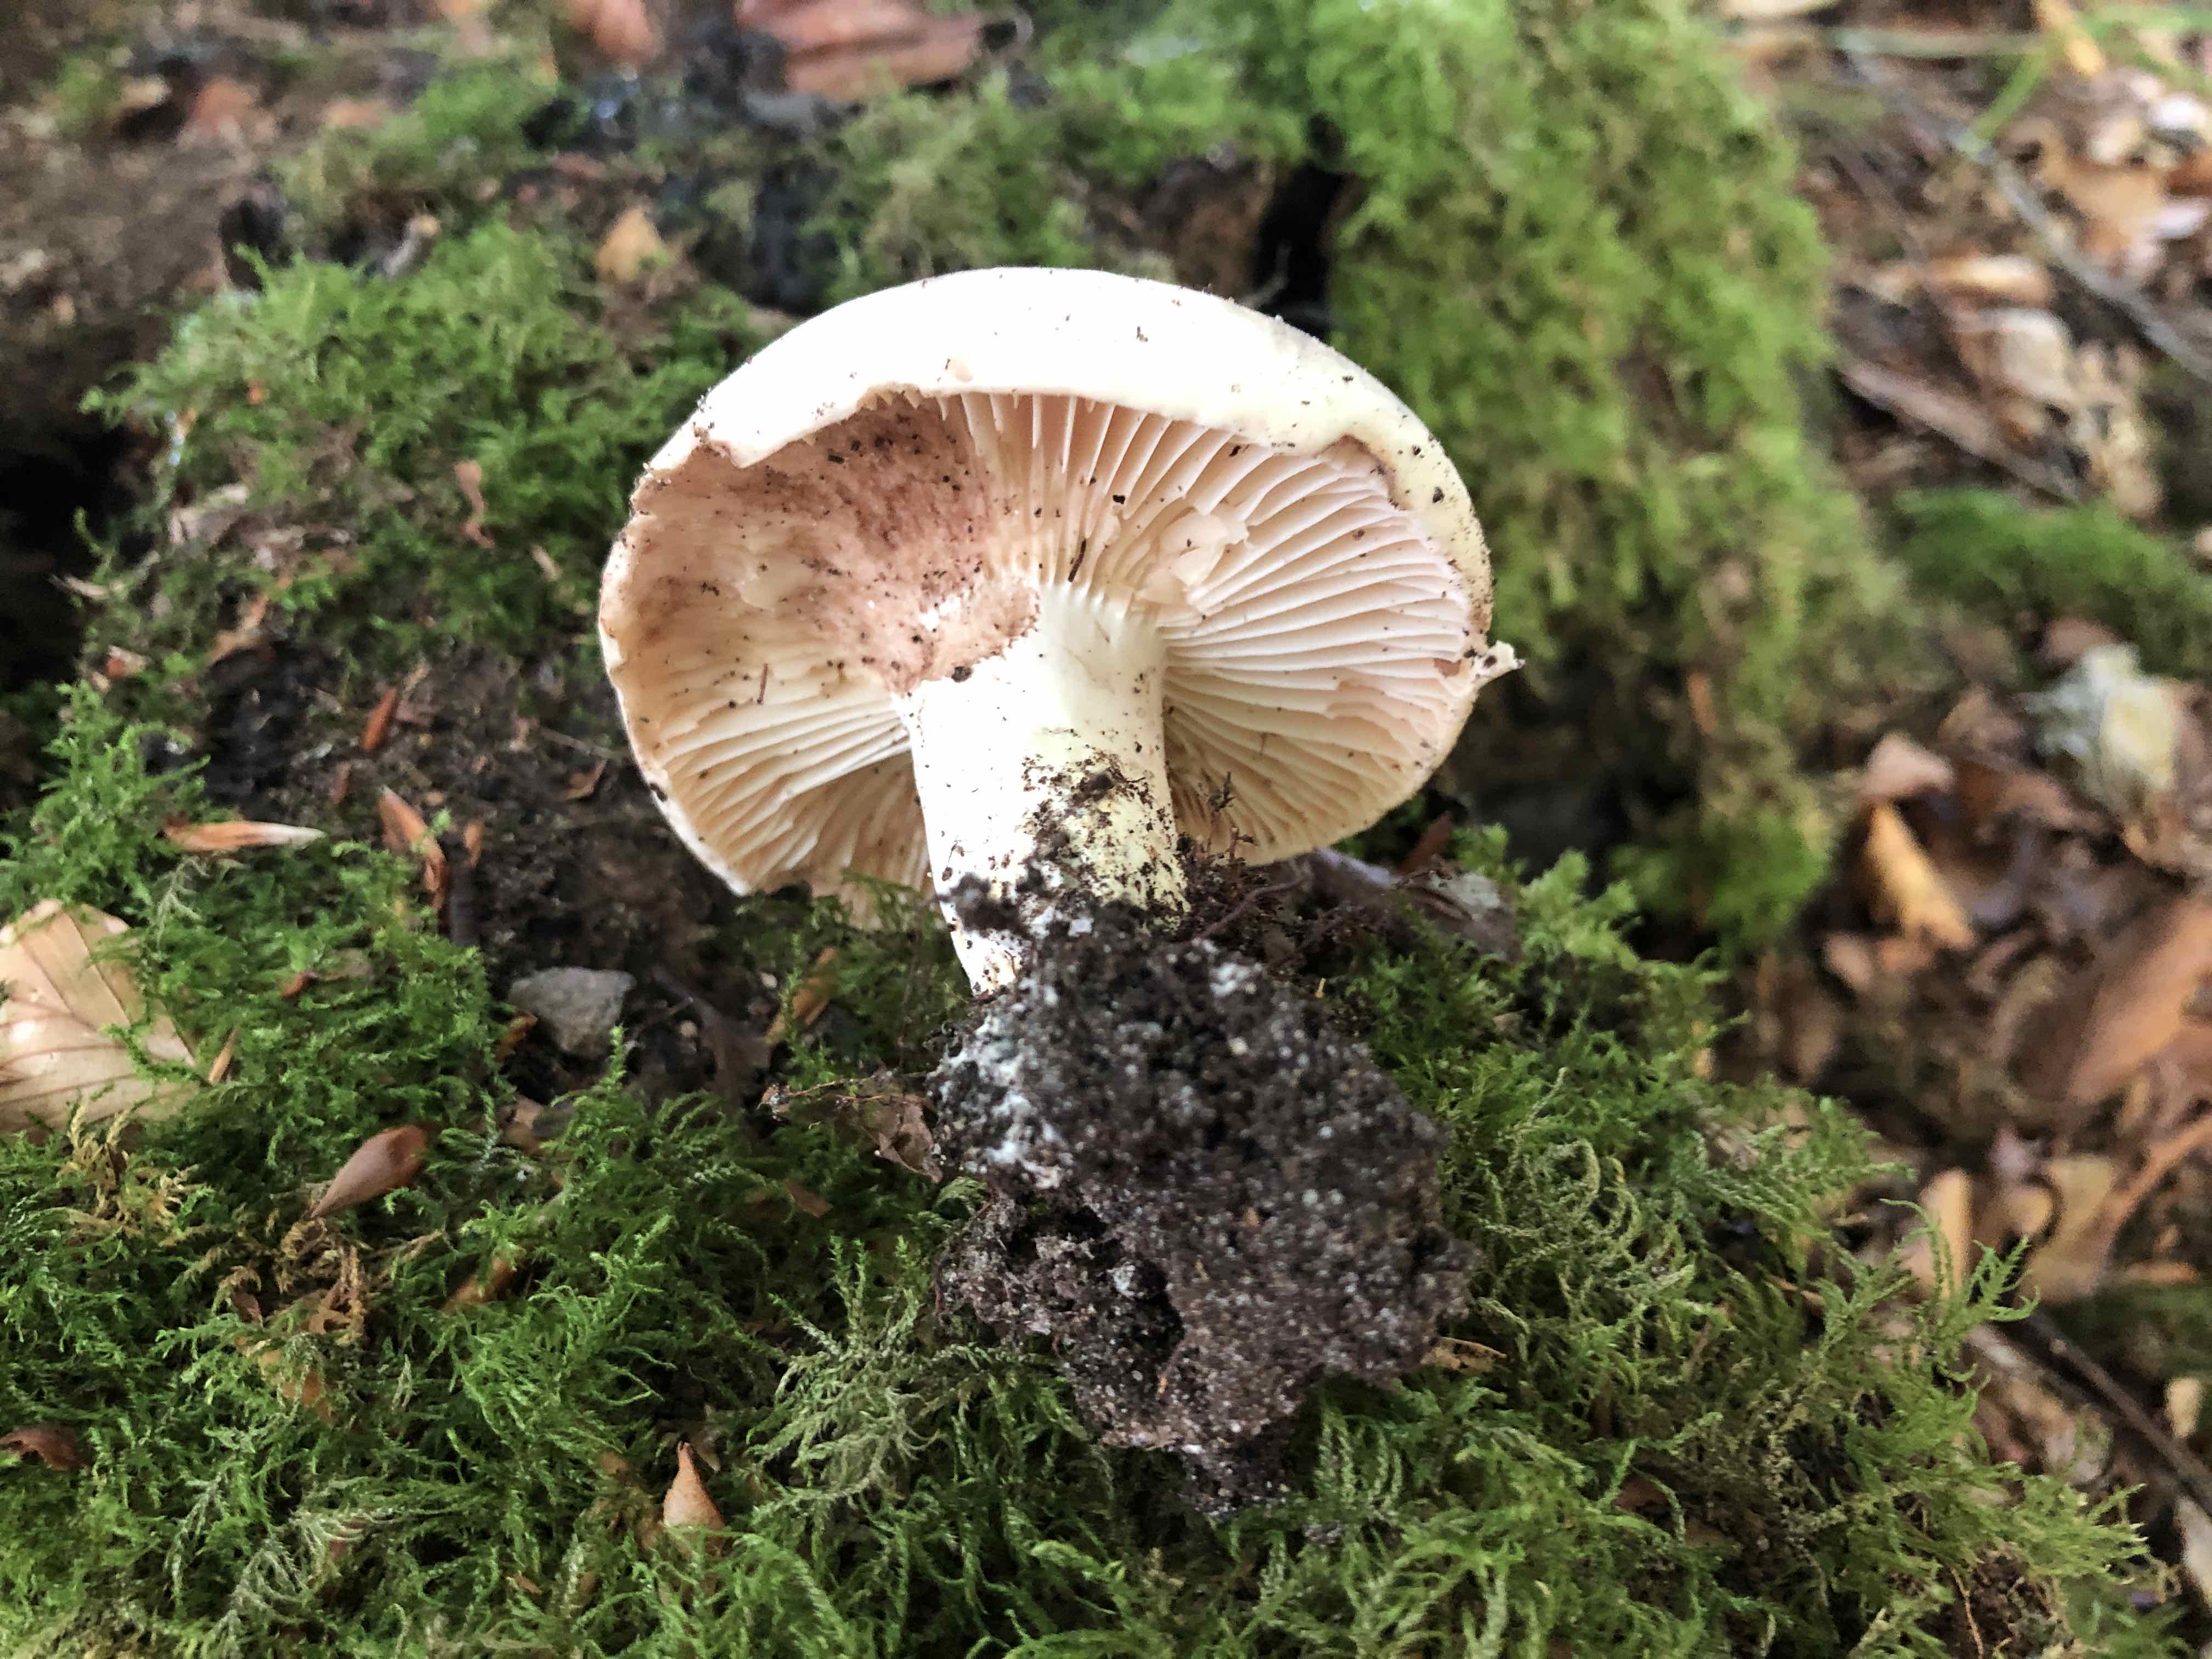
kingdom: Fungi
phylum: Basidiomycota
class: Agaricomycetes
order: Russulales
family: Russulaceae
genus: Russula
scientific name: Russula adusta
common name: sværtende skørhat
